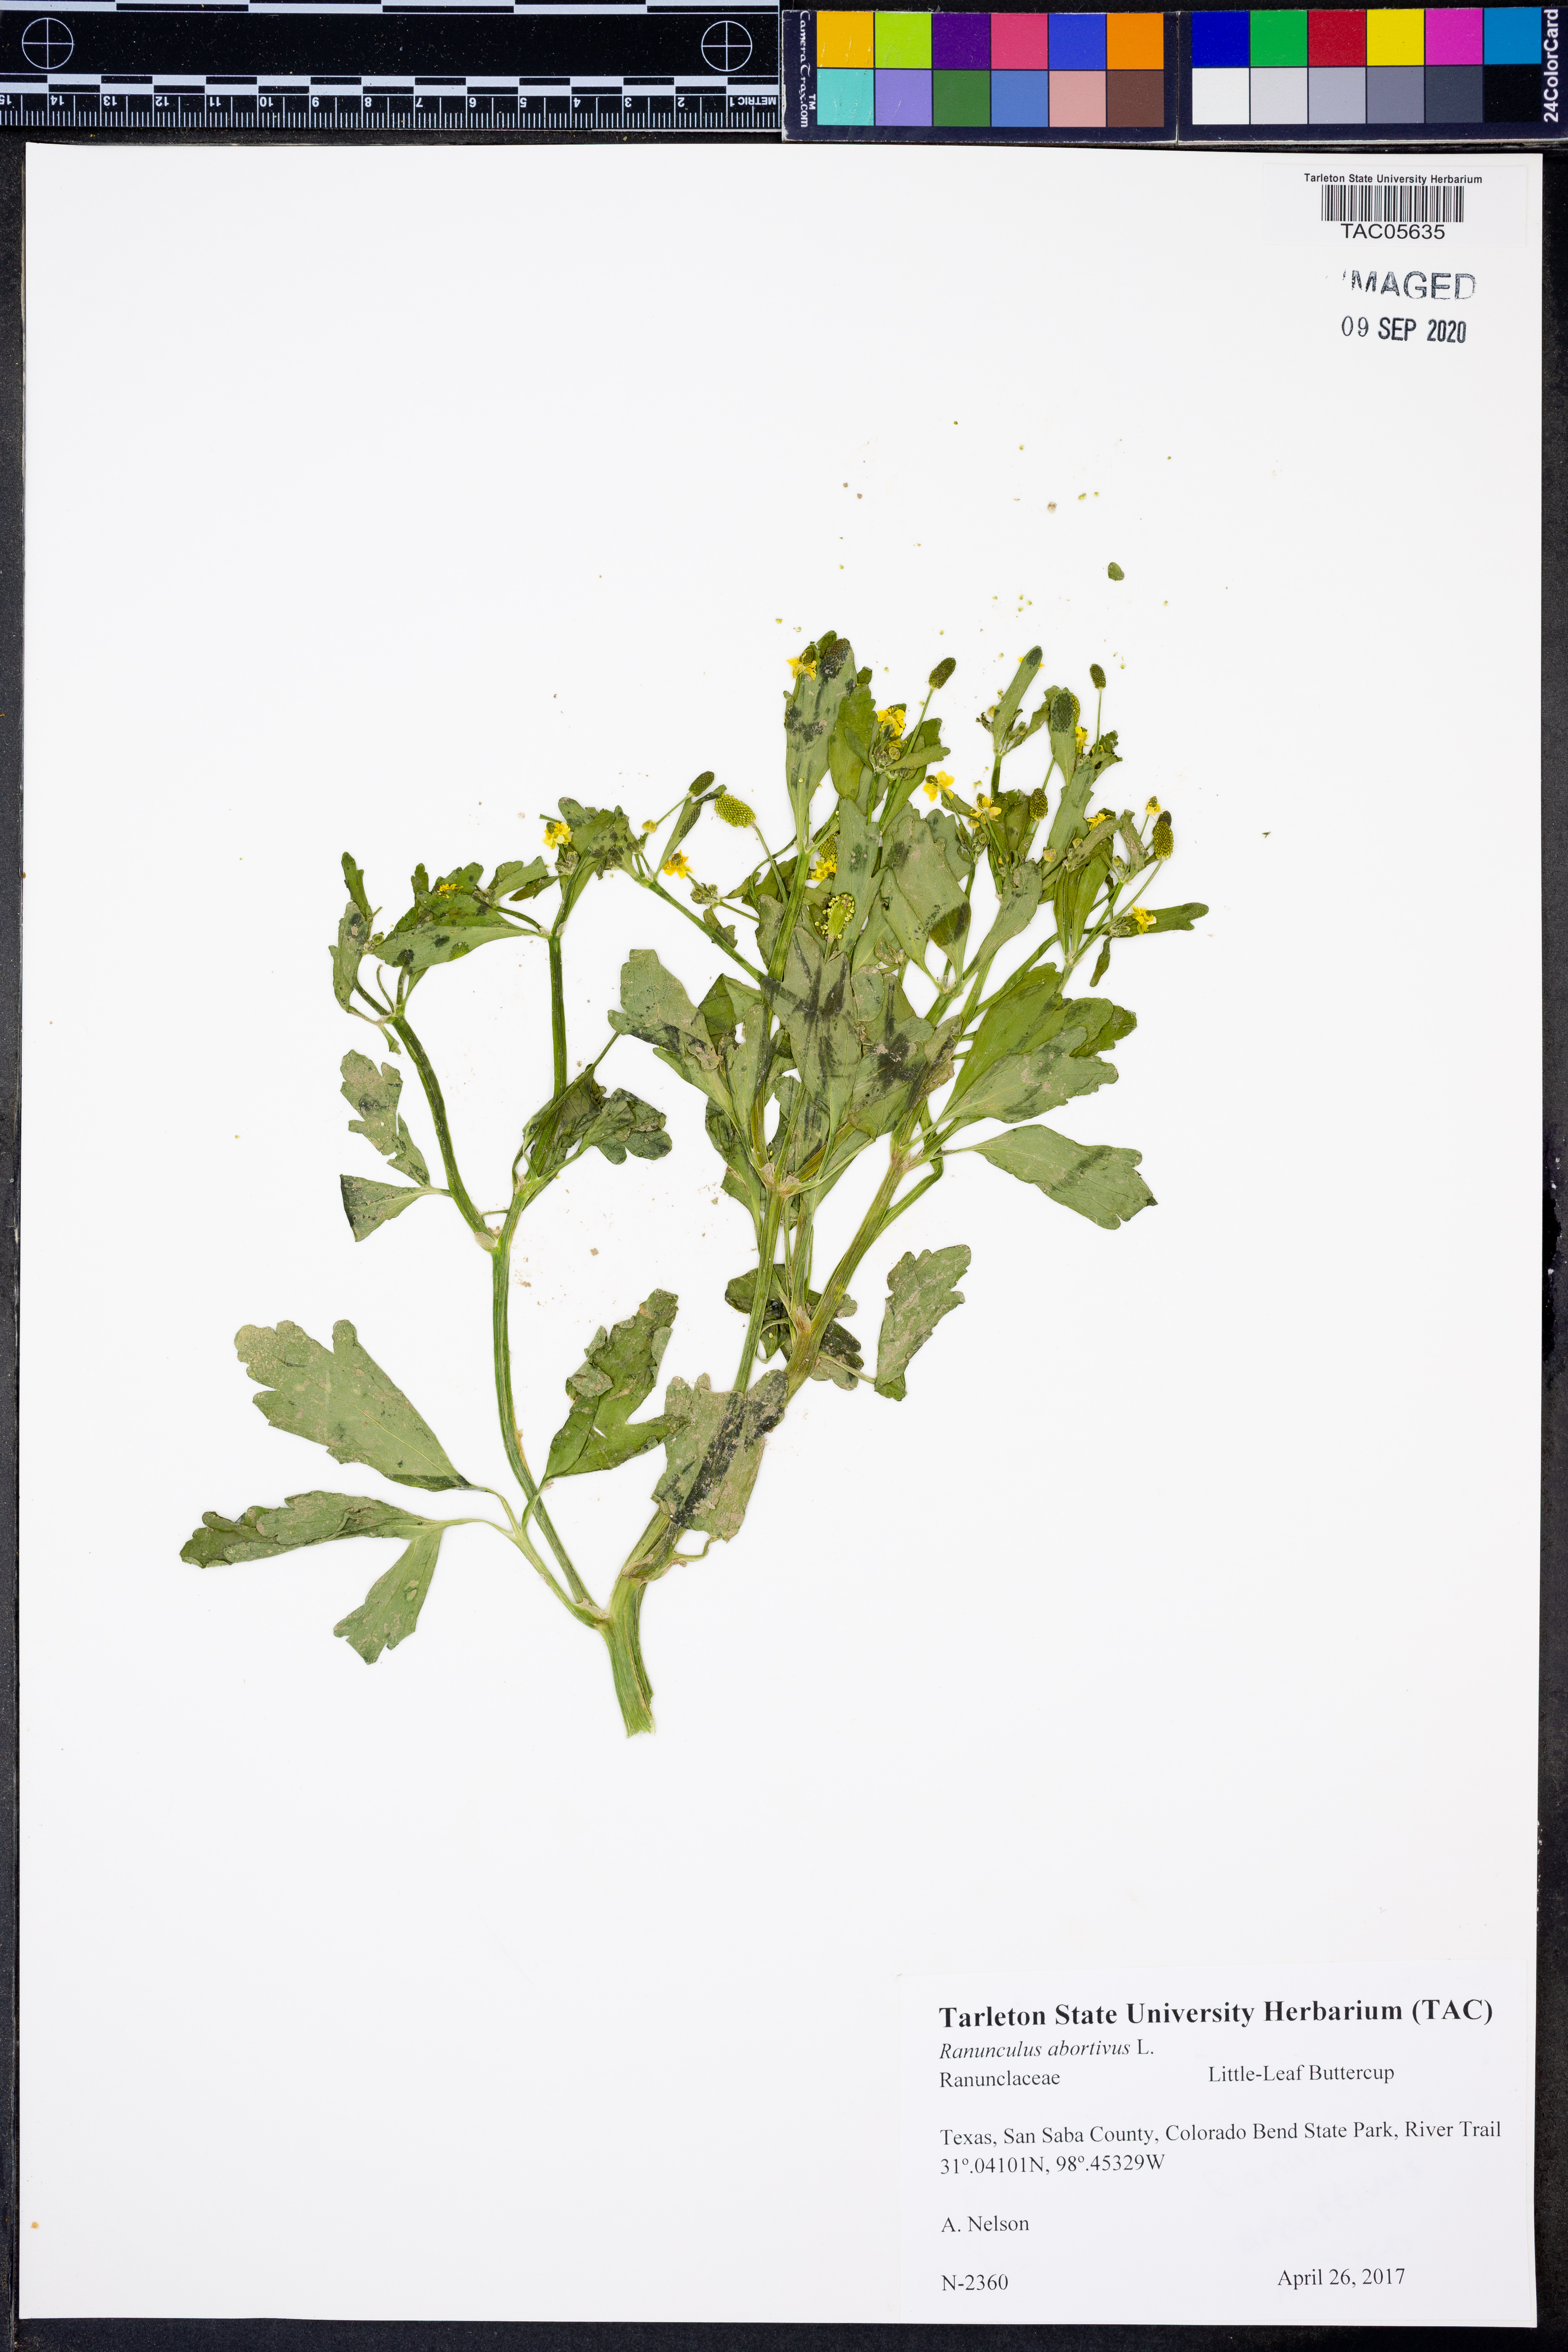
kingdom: Plantae
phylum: Tracheophyta
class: Magnoliopsida
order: Ranunculales
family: Ranunculaceae
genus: Ranunculus
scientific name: Ranunculus abortivus
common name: Early wood buttercup
